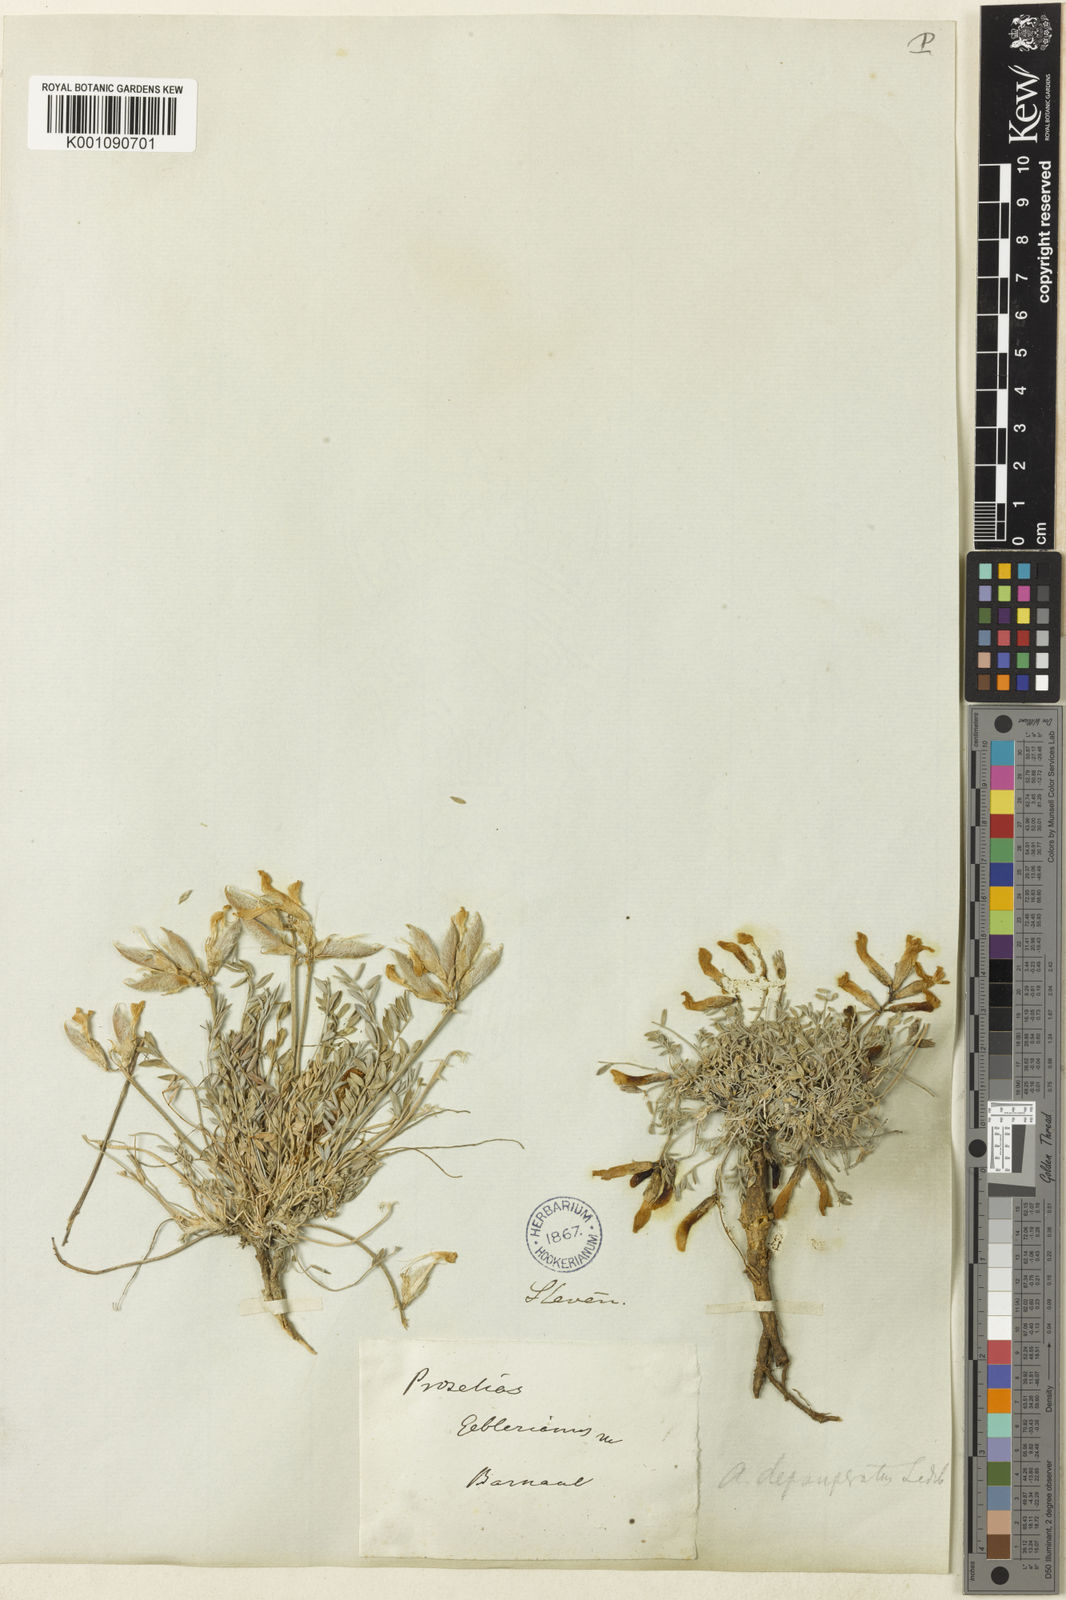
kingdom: Plantae
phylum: Tracheophyta
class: Magnoliopsida
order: Fabales
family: Fabaceae
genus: Astragalus
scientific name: Astragalus
